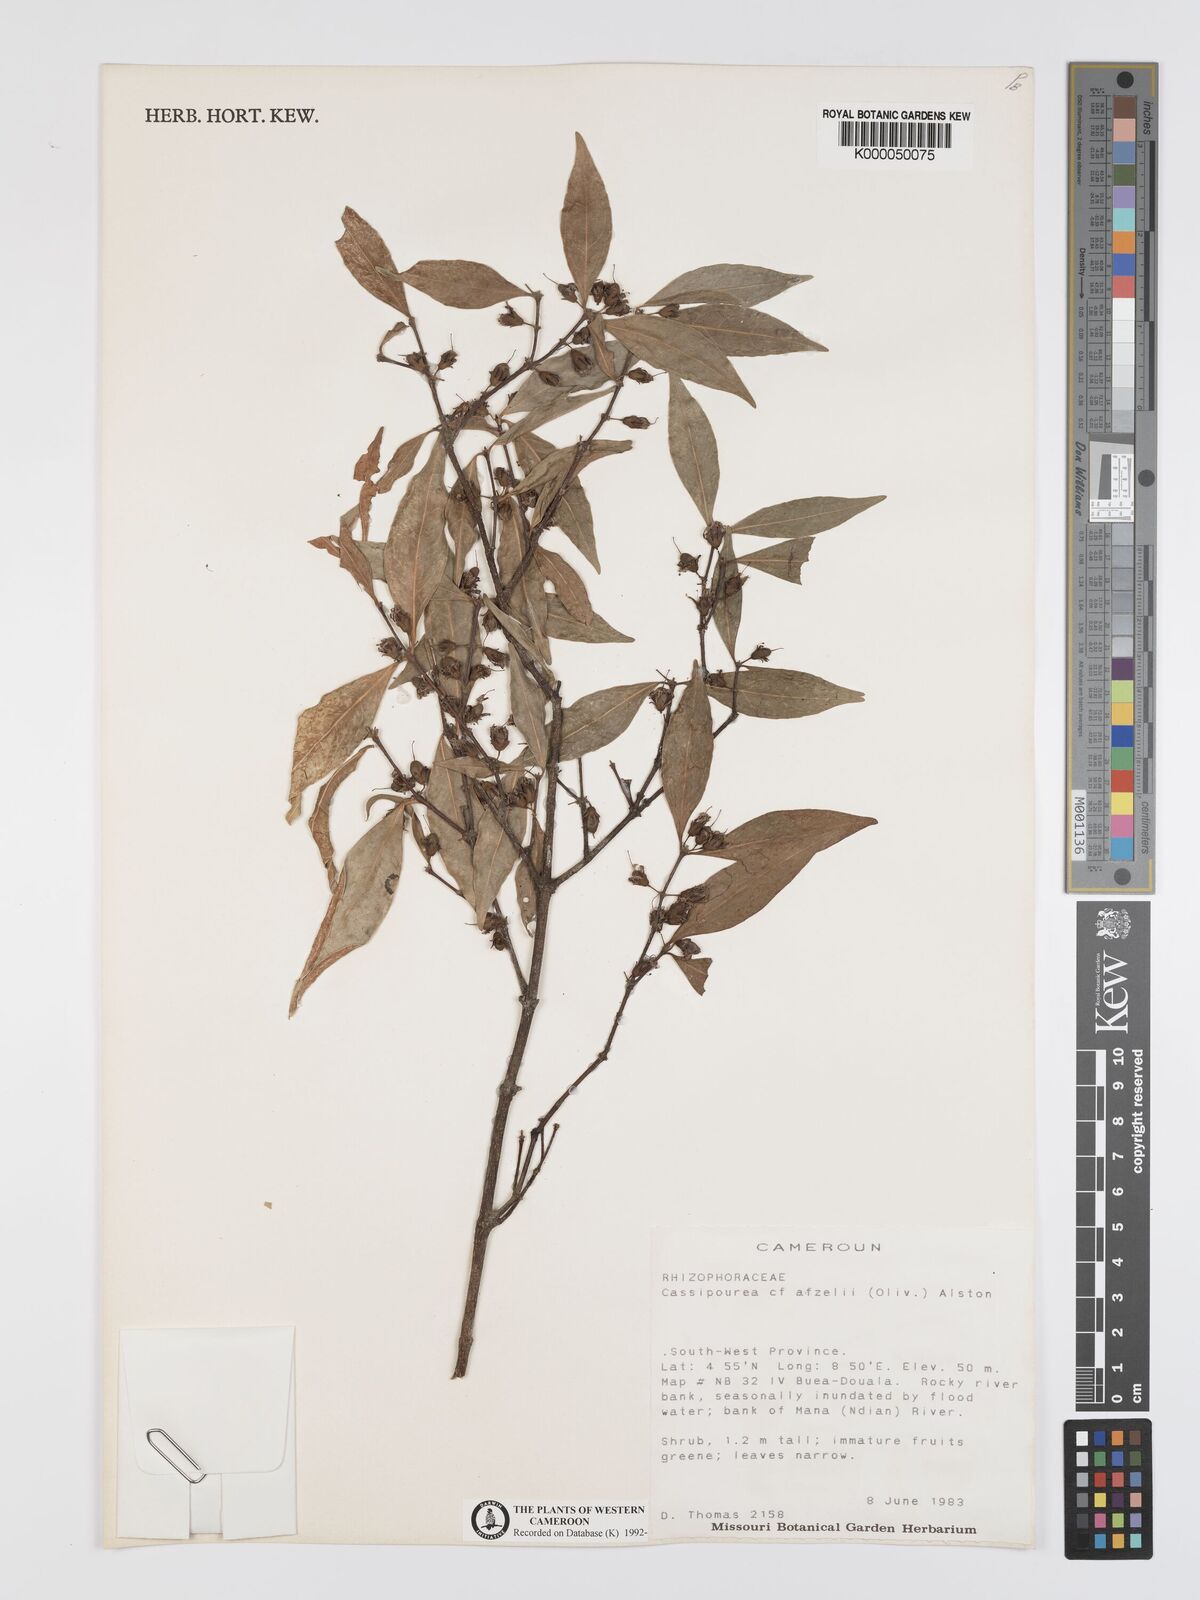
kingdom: Plantae
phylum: Tracheophyta
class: Magnoliopsida
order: Malpighiales
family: Rhizophoraceae
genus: Cassipourea
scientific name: Cassipourea afzelii
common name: Elephant tusk tree
